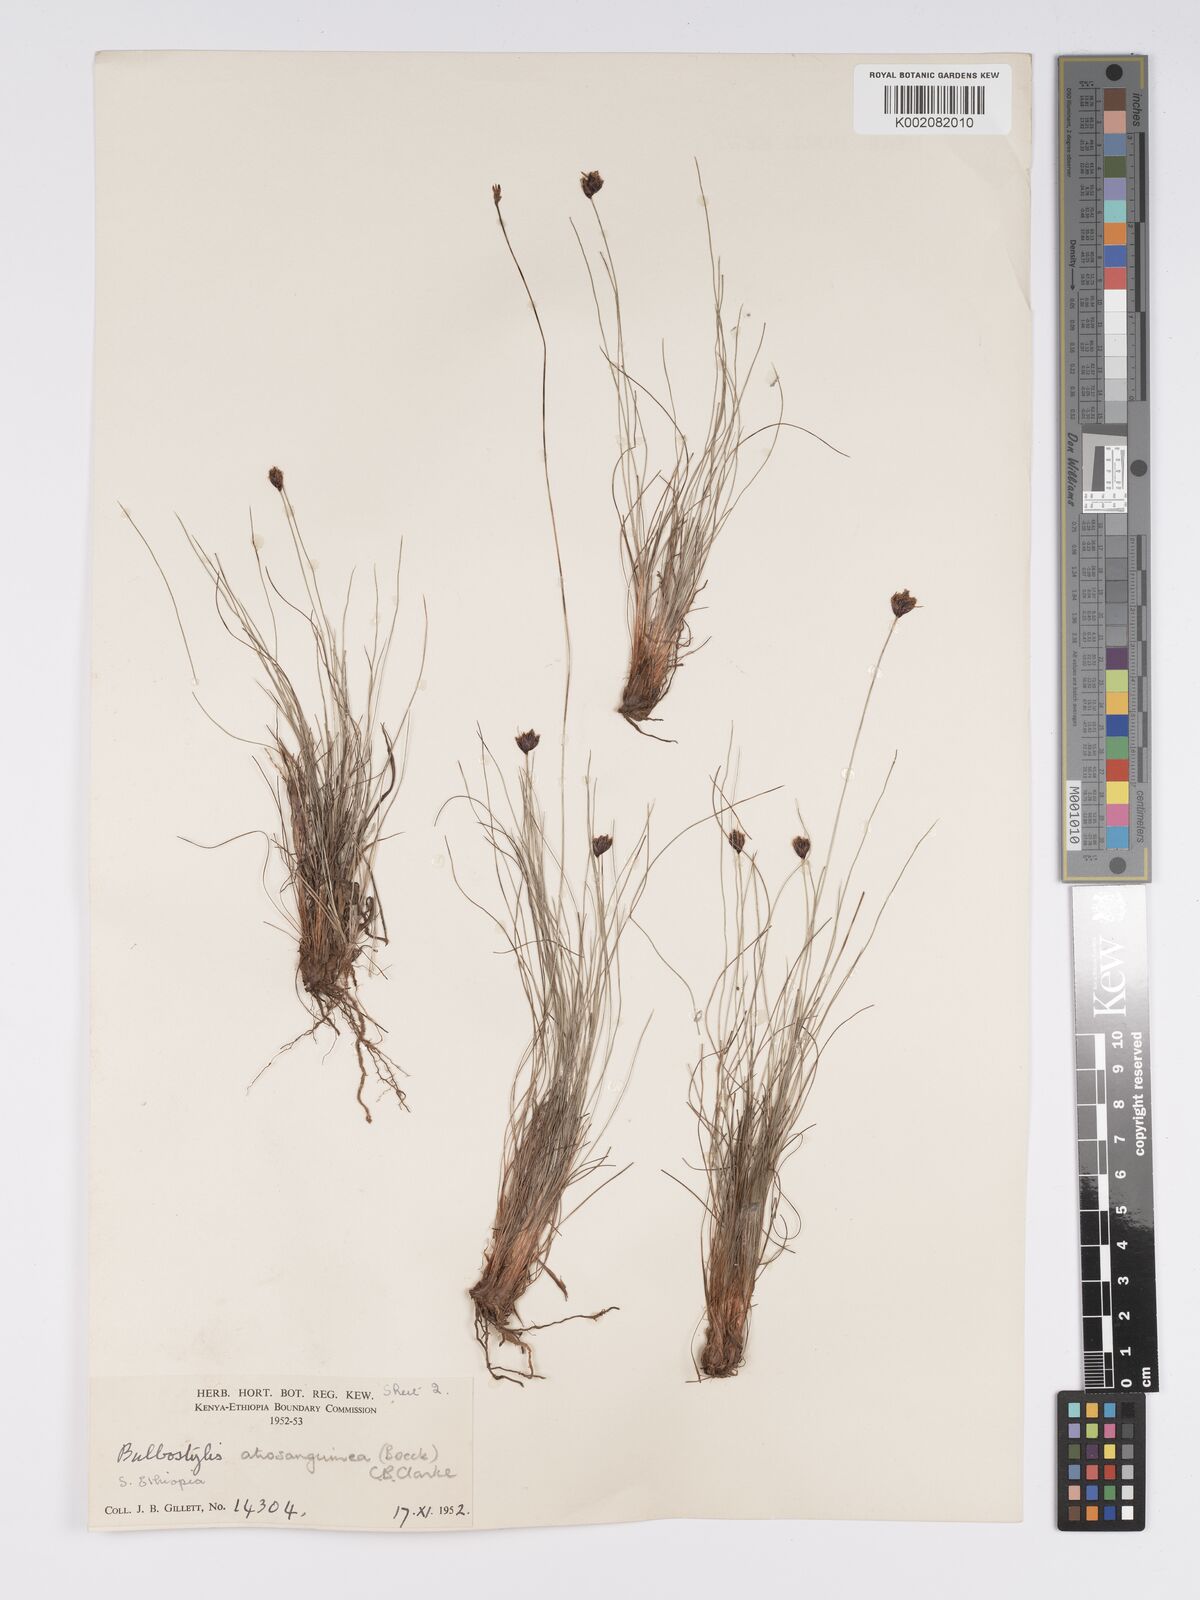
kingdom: Plantae
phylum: Tracheophyta
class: Liliopsida
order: Poales
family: Cyperaceae
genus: Bulbostylis
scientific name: Bulbostylis
